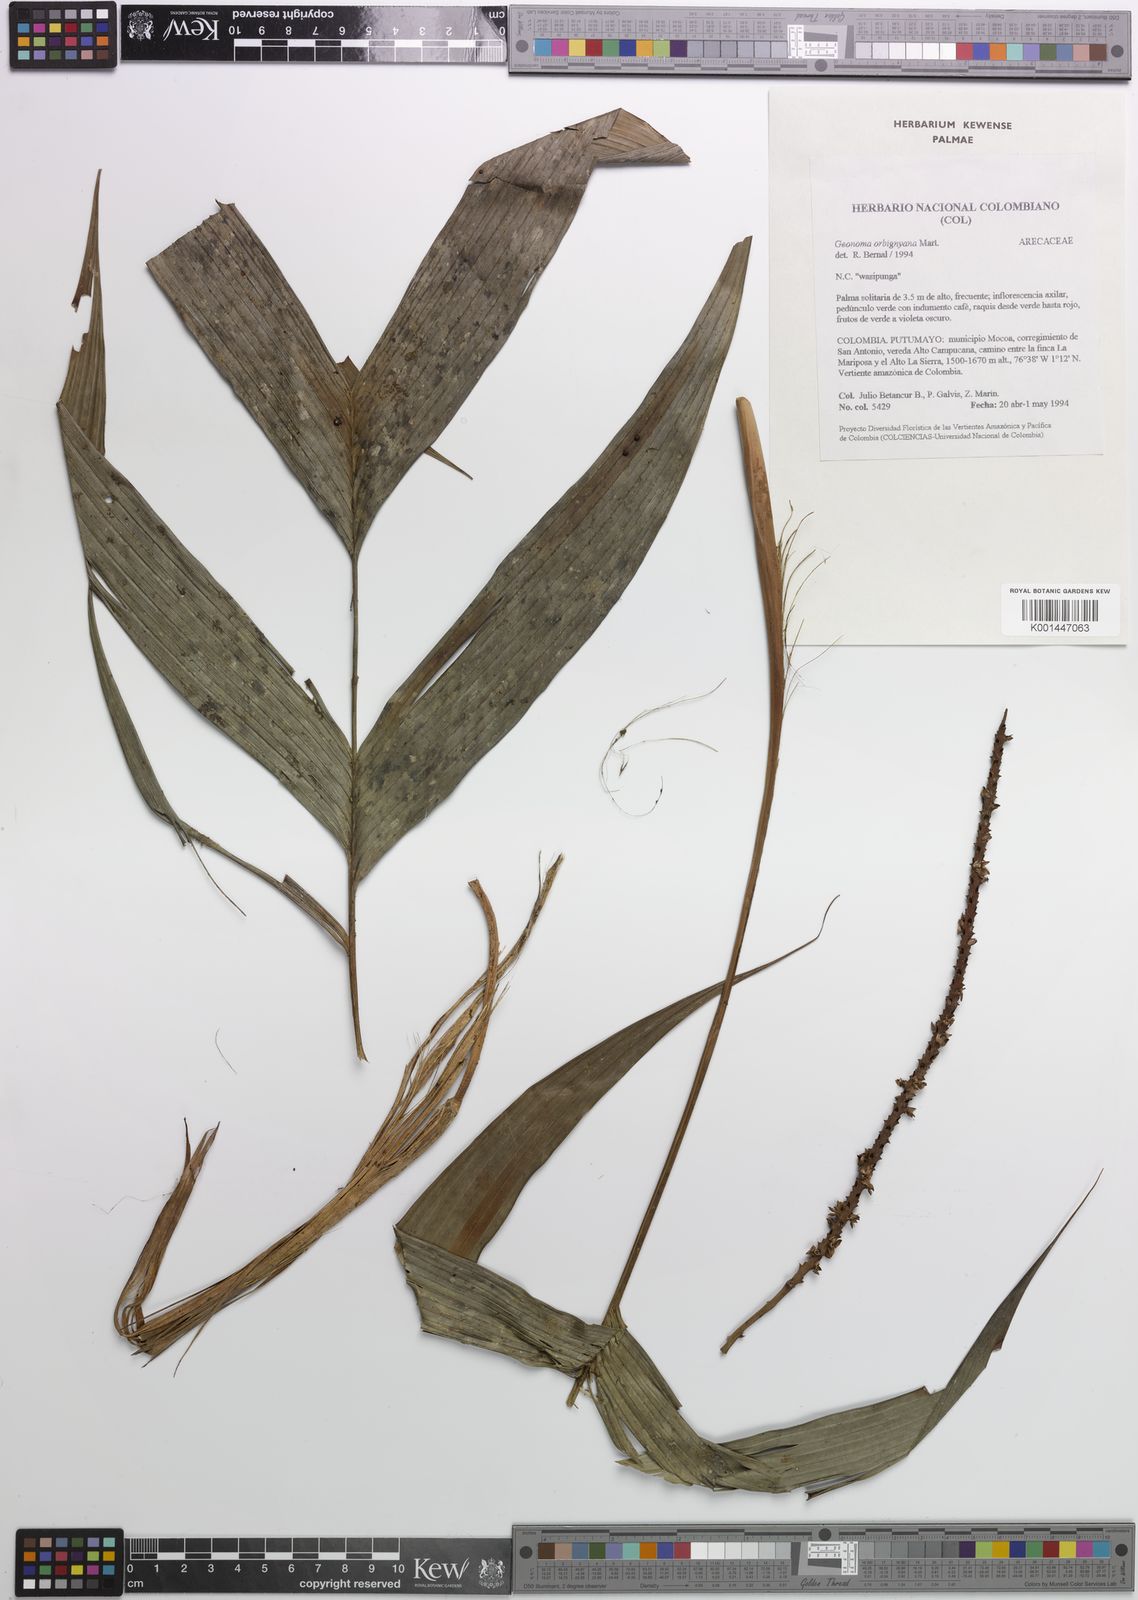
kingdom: Plantae
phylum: Tracheophyta
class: Liliopsida
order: Arecales
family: Arecaceae
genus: Geonoma
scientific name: Geonoma
